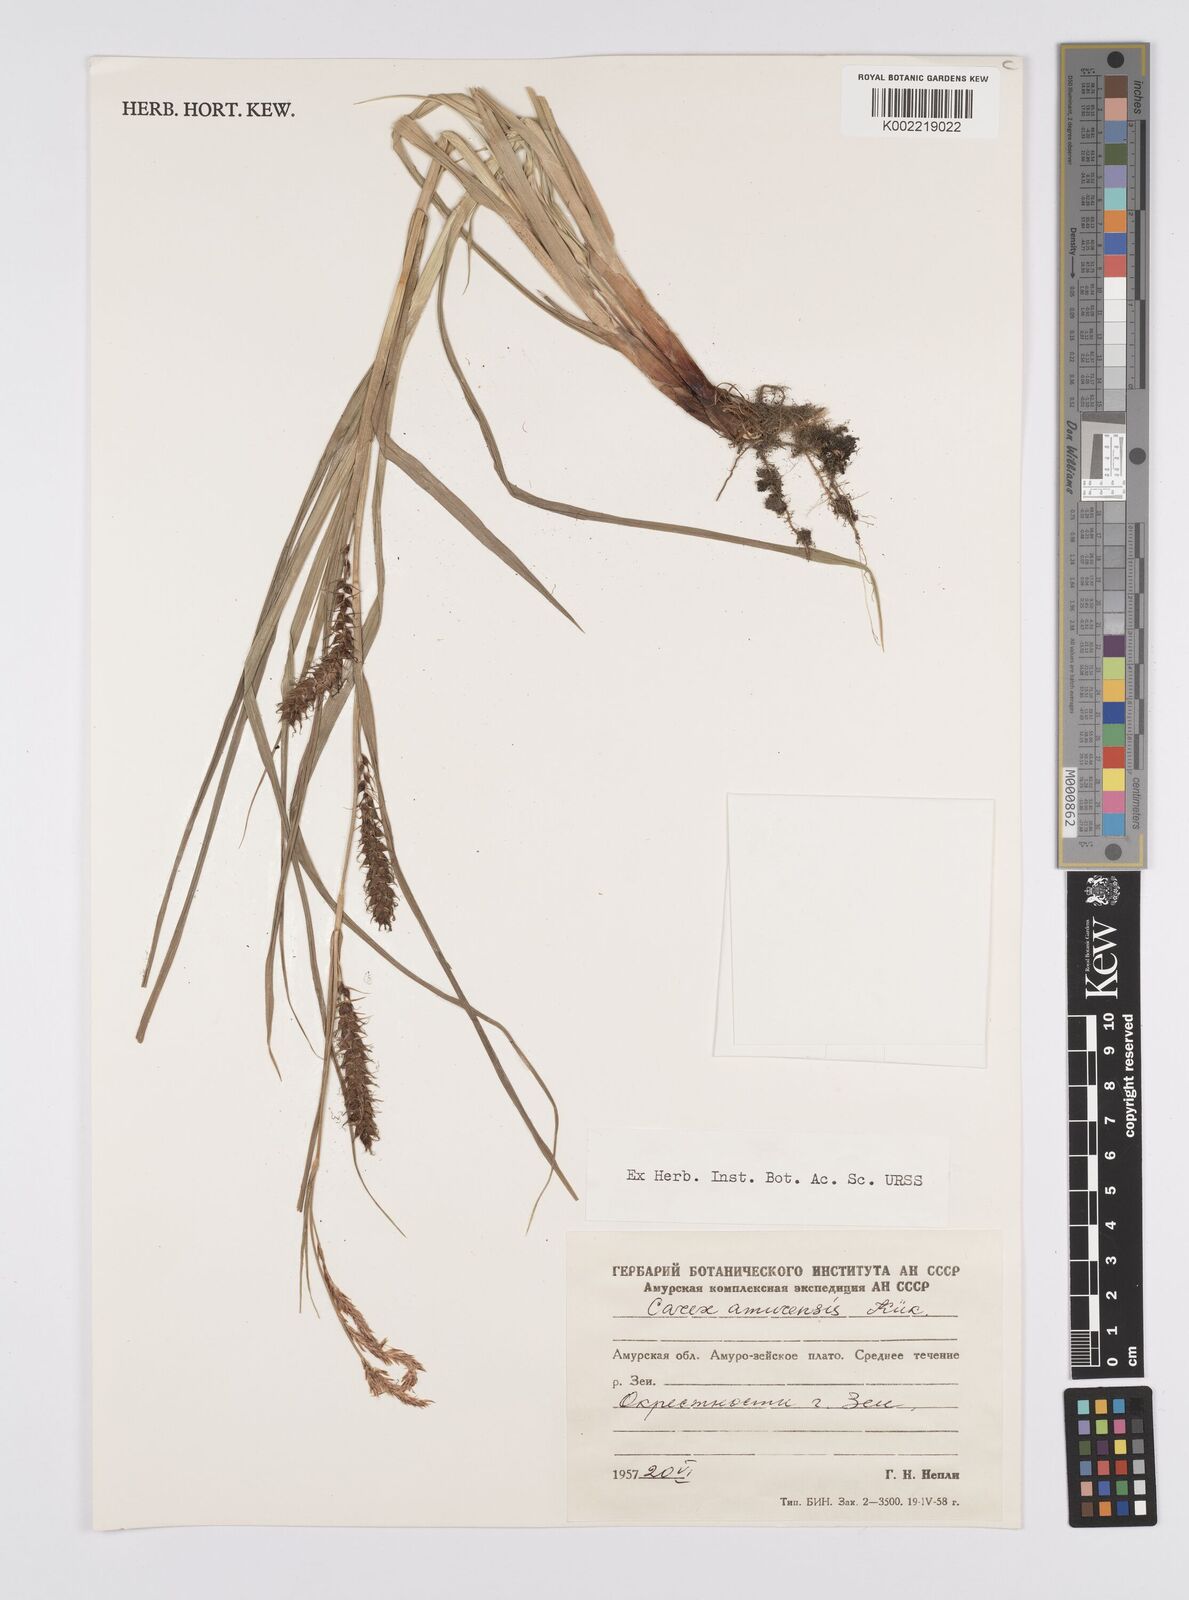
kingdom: Plantae
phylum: Tracheophyta
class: Liliopsida
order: Poales
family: Cyperaceae
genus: Carex
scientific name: Carex drymophila
